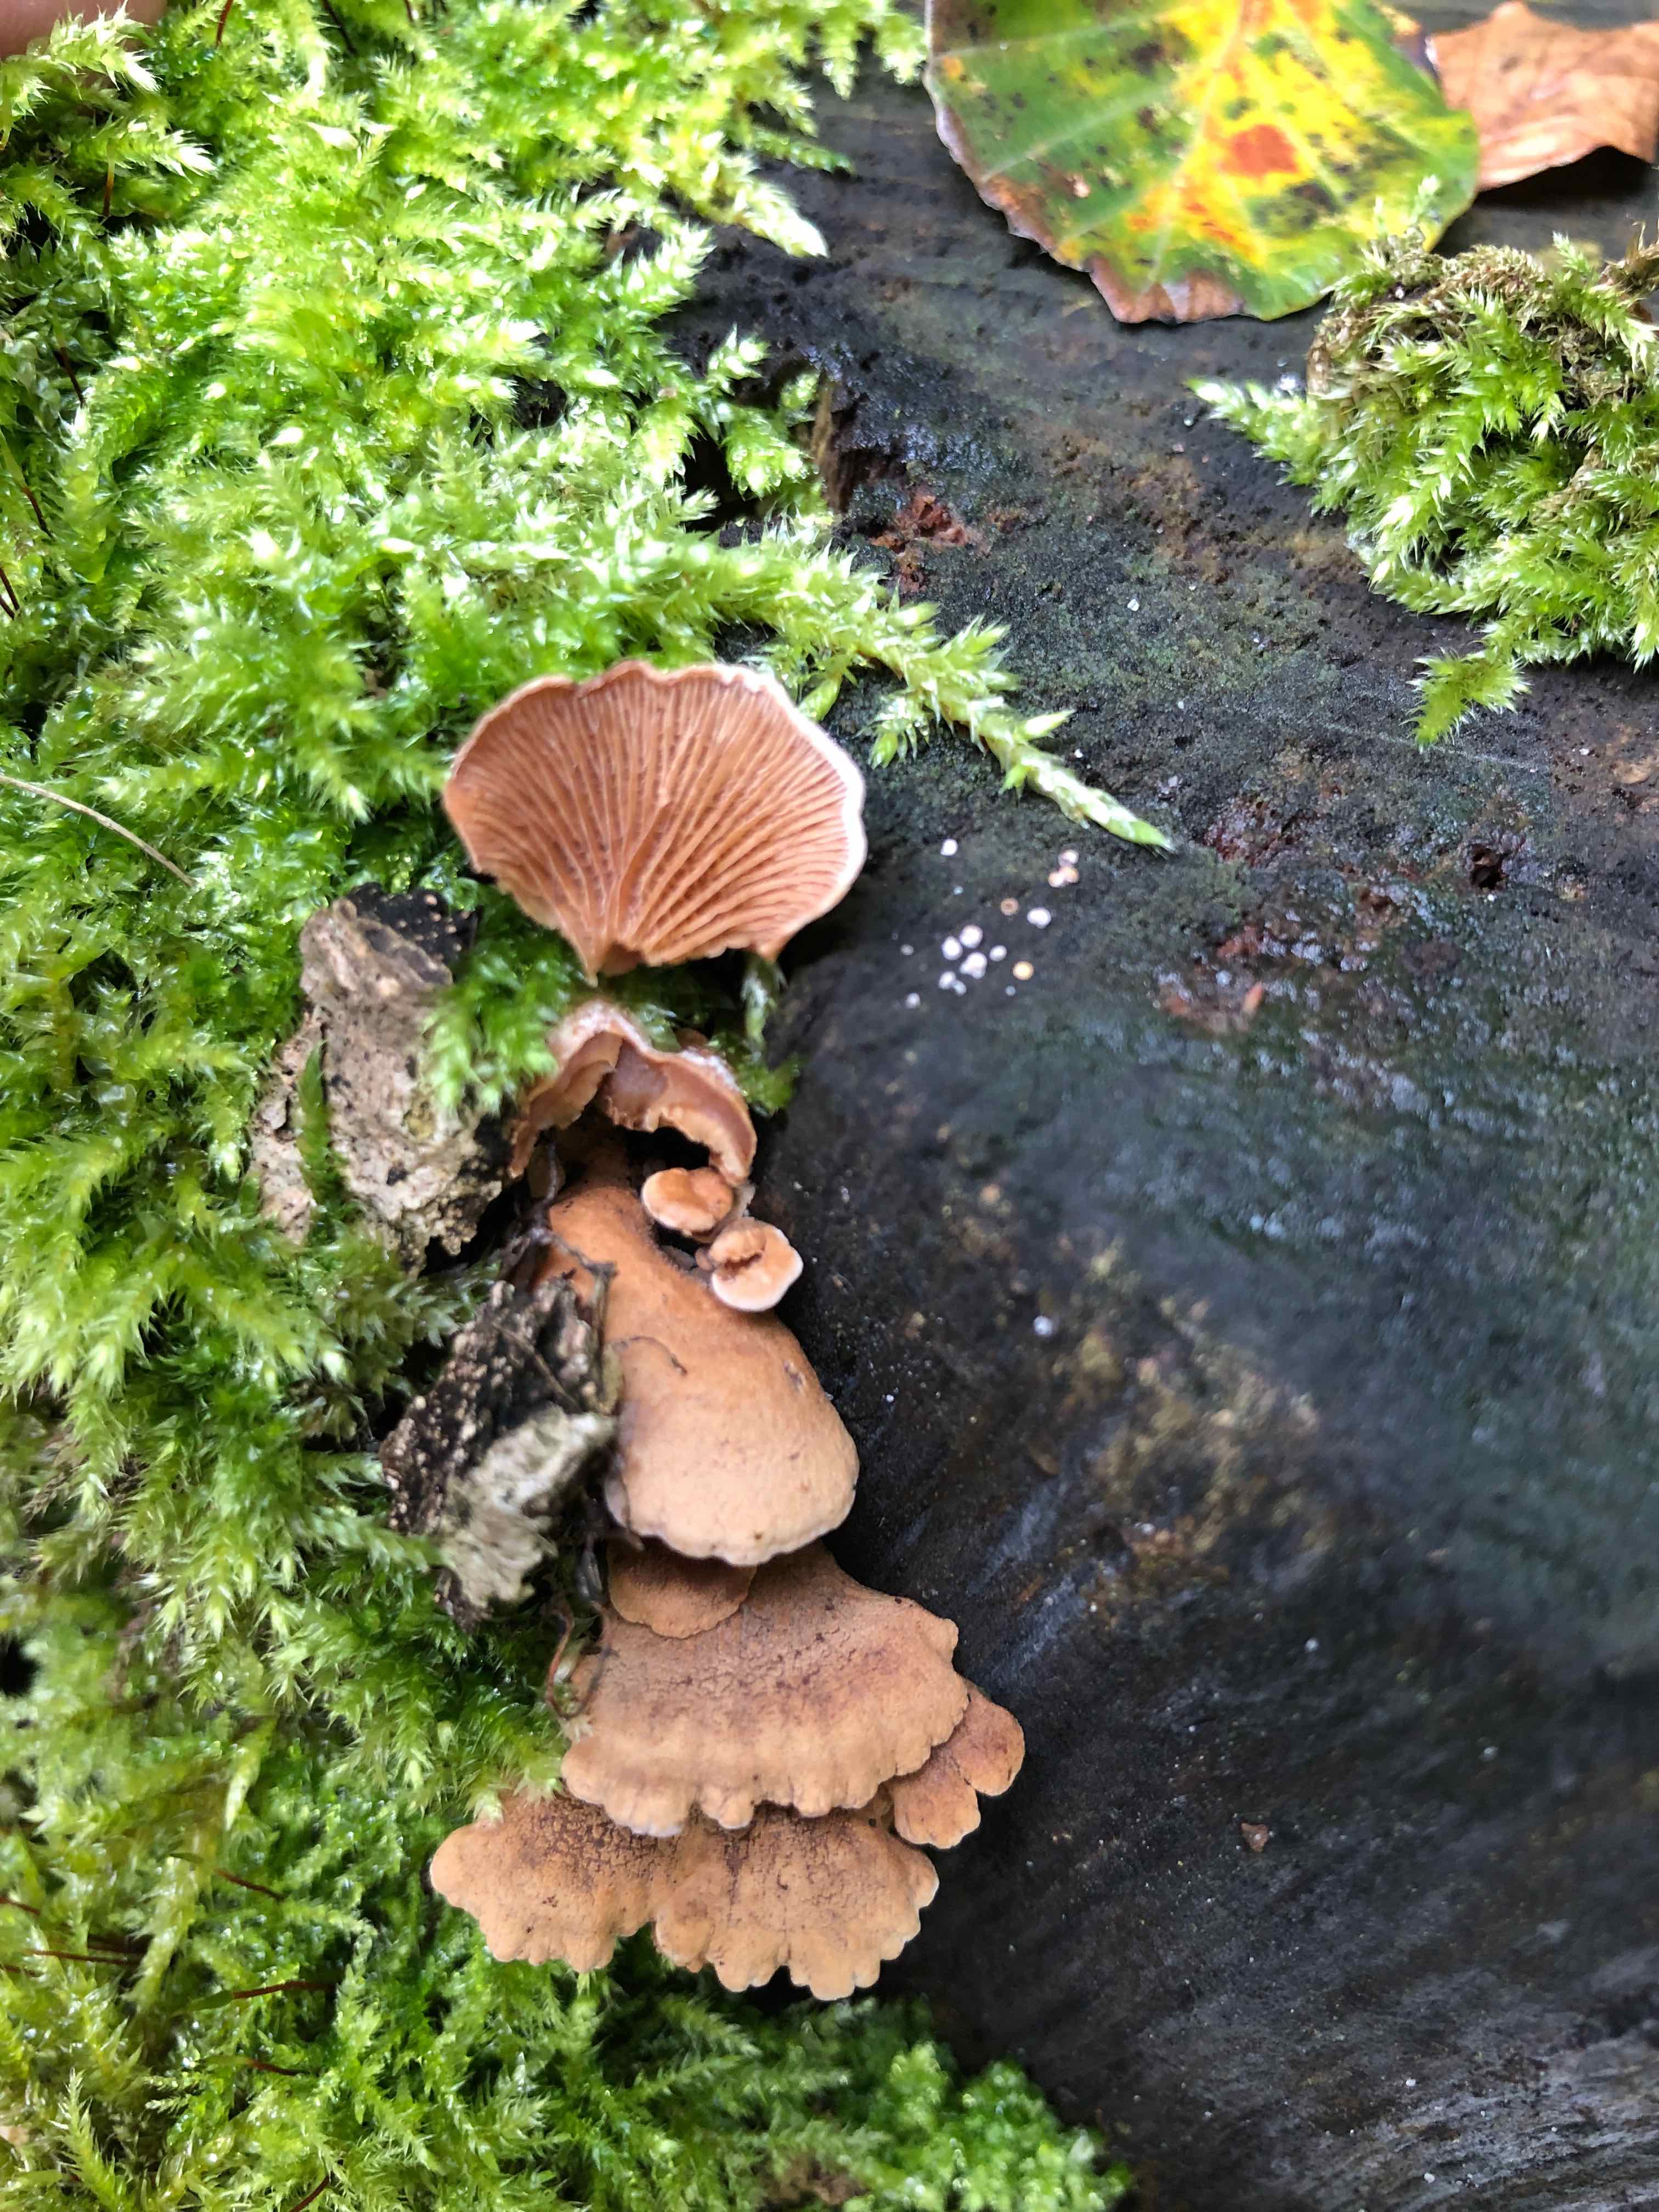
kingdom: Fungi
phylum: Basidiomycota
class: Agaricomycetes
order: Agaricales
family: Mycenaceae
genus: Panellus
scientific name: Panellus stipticus
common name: kliddet epaulethat
